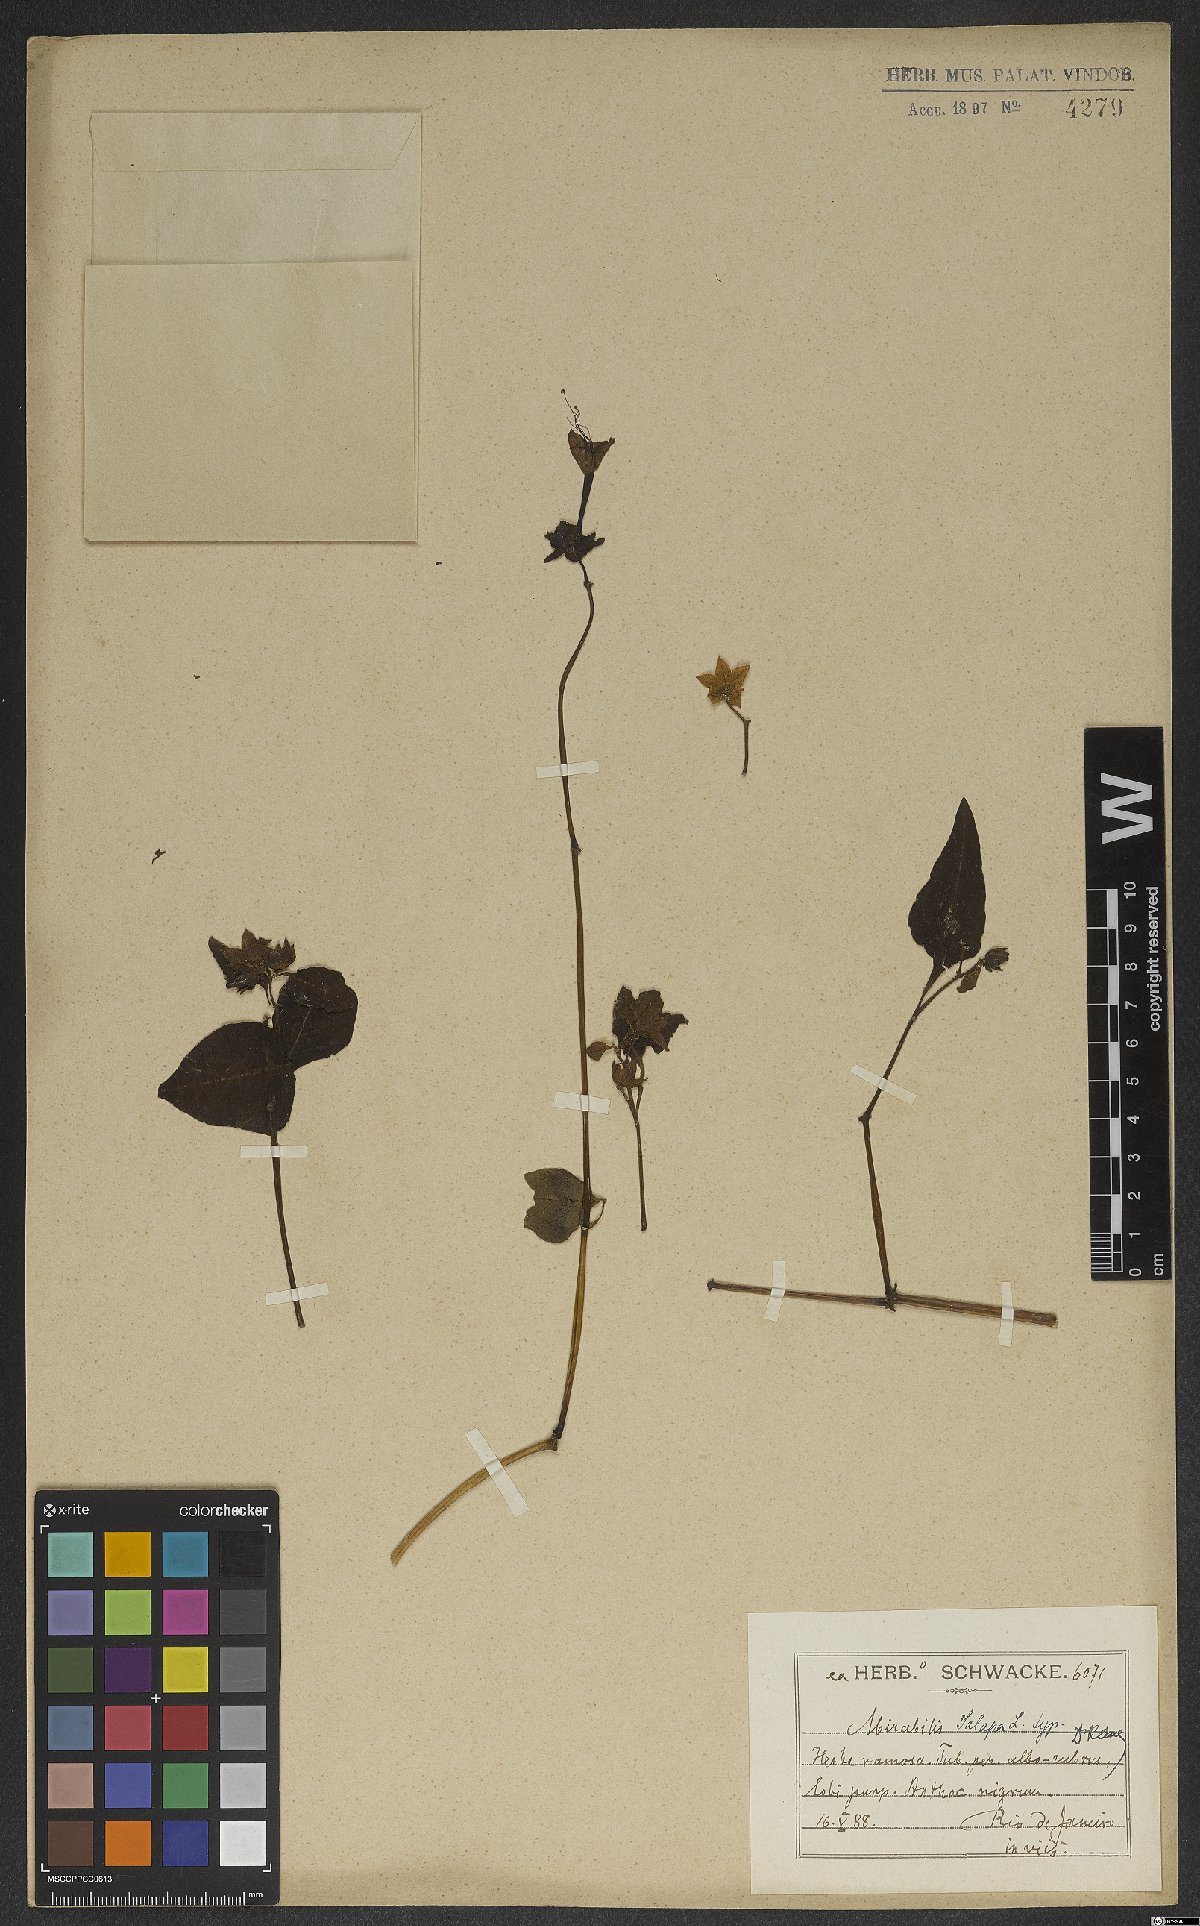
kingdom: Plantae
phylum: Tracheophyta
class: Magnoliopsida
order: Caryophyllales
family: Nyctaginaceae
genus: Mirabilis
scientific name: Mirabilis jalapa
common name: Marvel-of-peru
